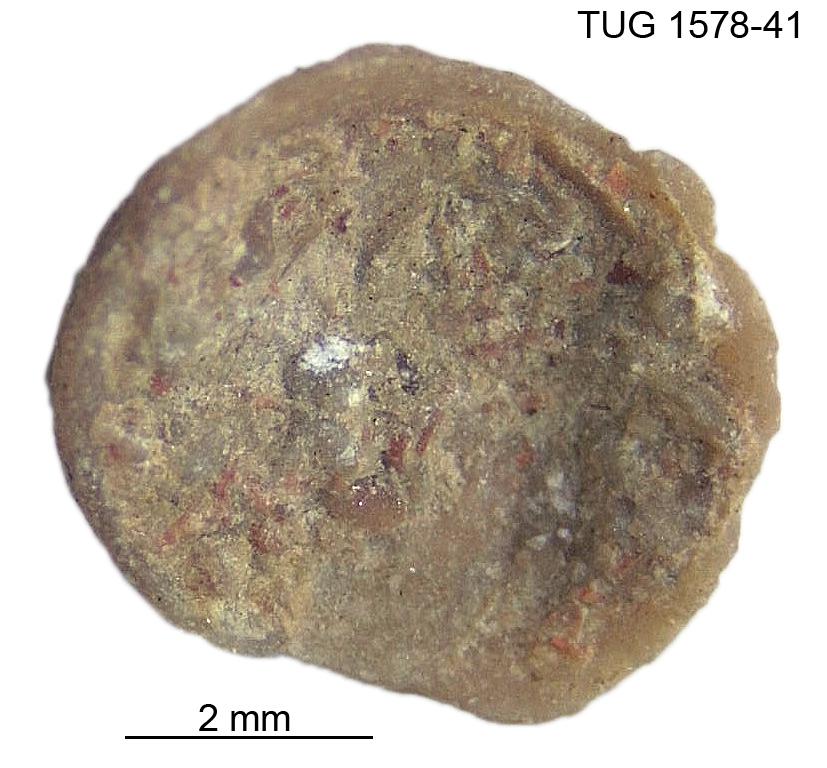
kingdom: Animalia
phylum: Mollusca
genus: Anticalyptraea
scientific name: Anticalyptraea westergaardi
